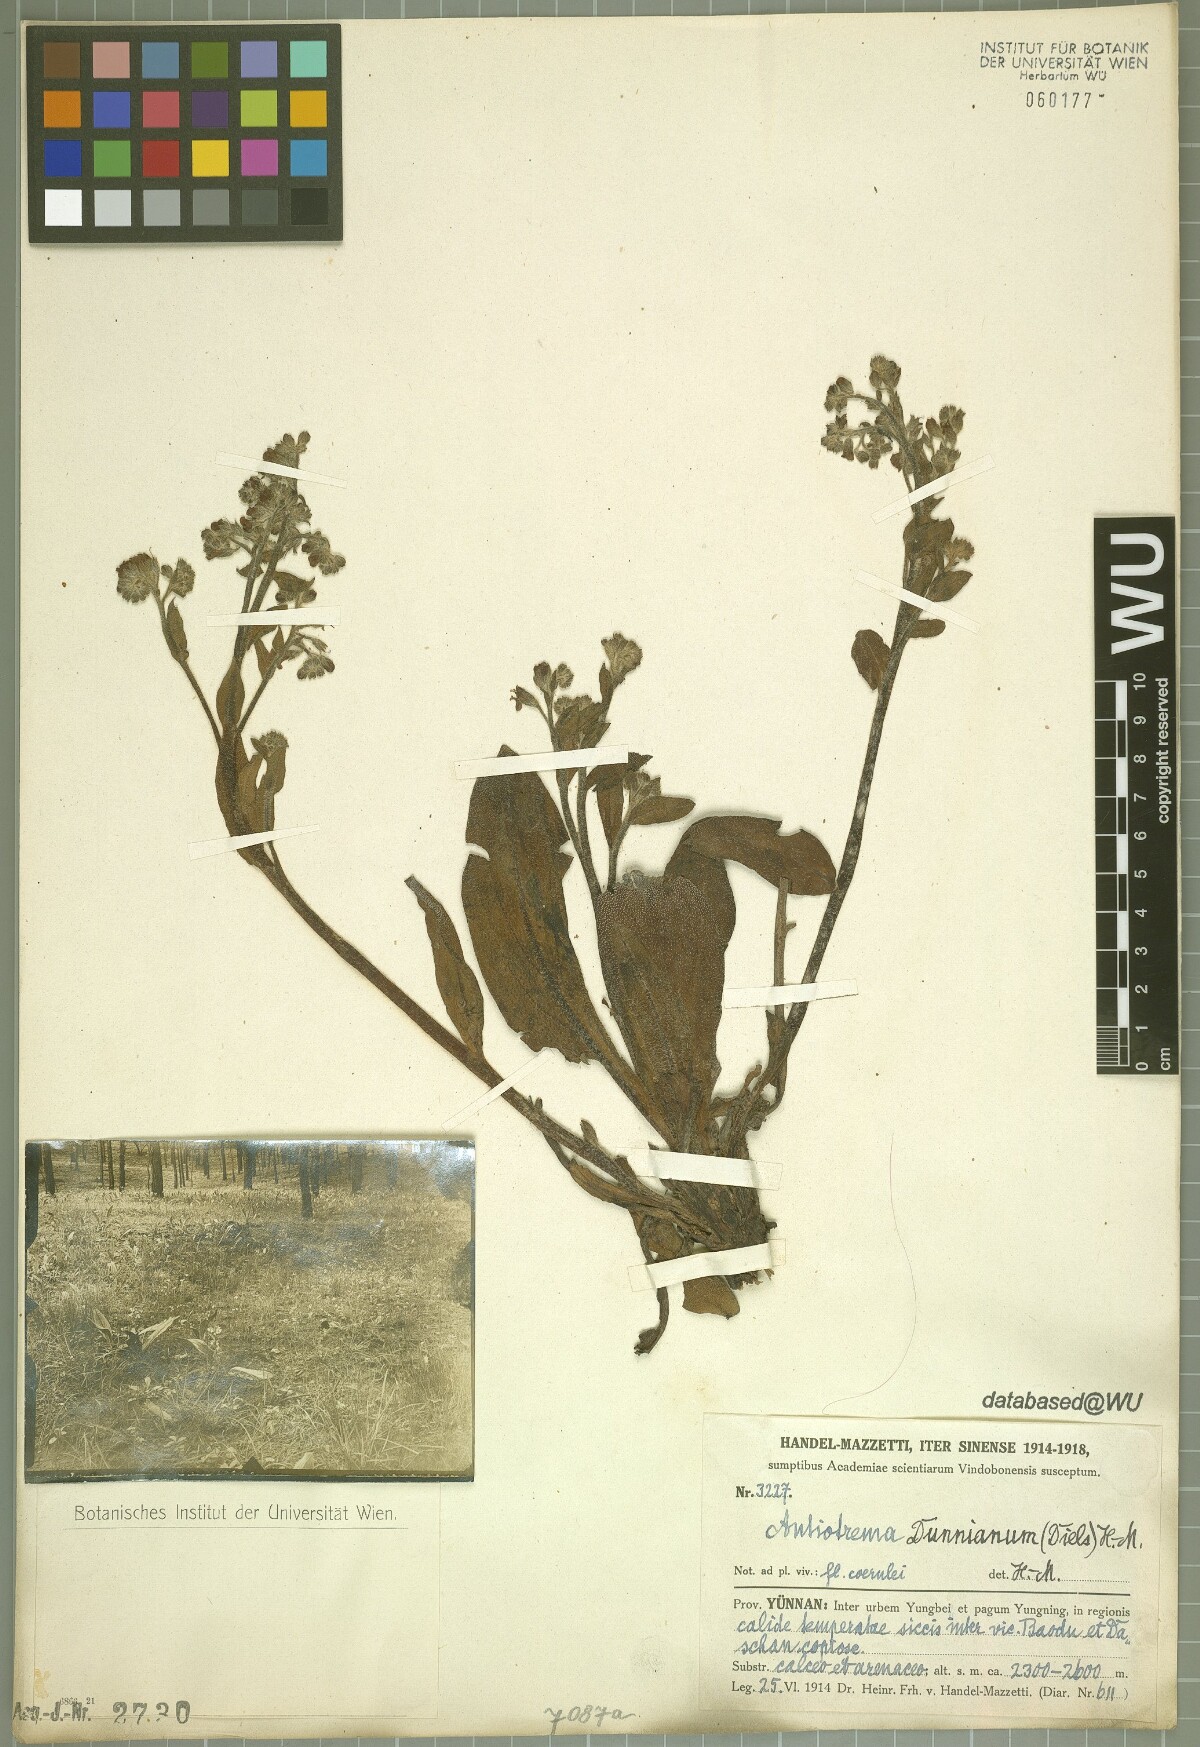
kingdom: Plantae
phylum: Tracheophyta
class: Magnoliopsida
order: Boraginales
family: Boraginaceae
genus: Antiotrema
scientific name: Antiotrema dunnianum
